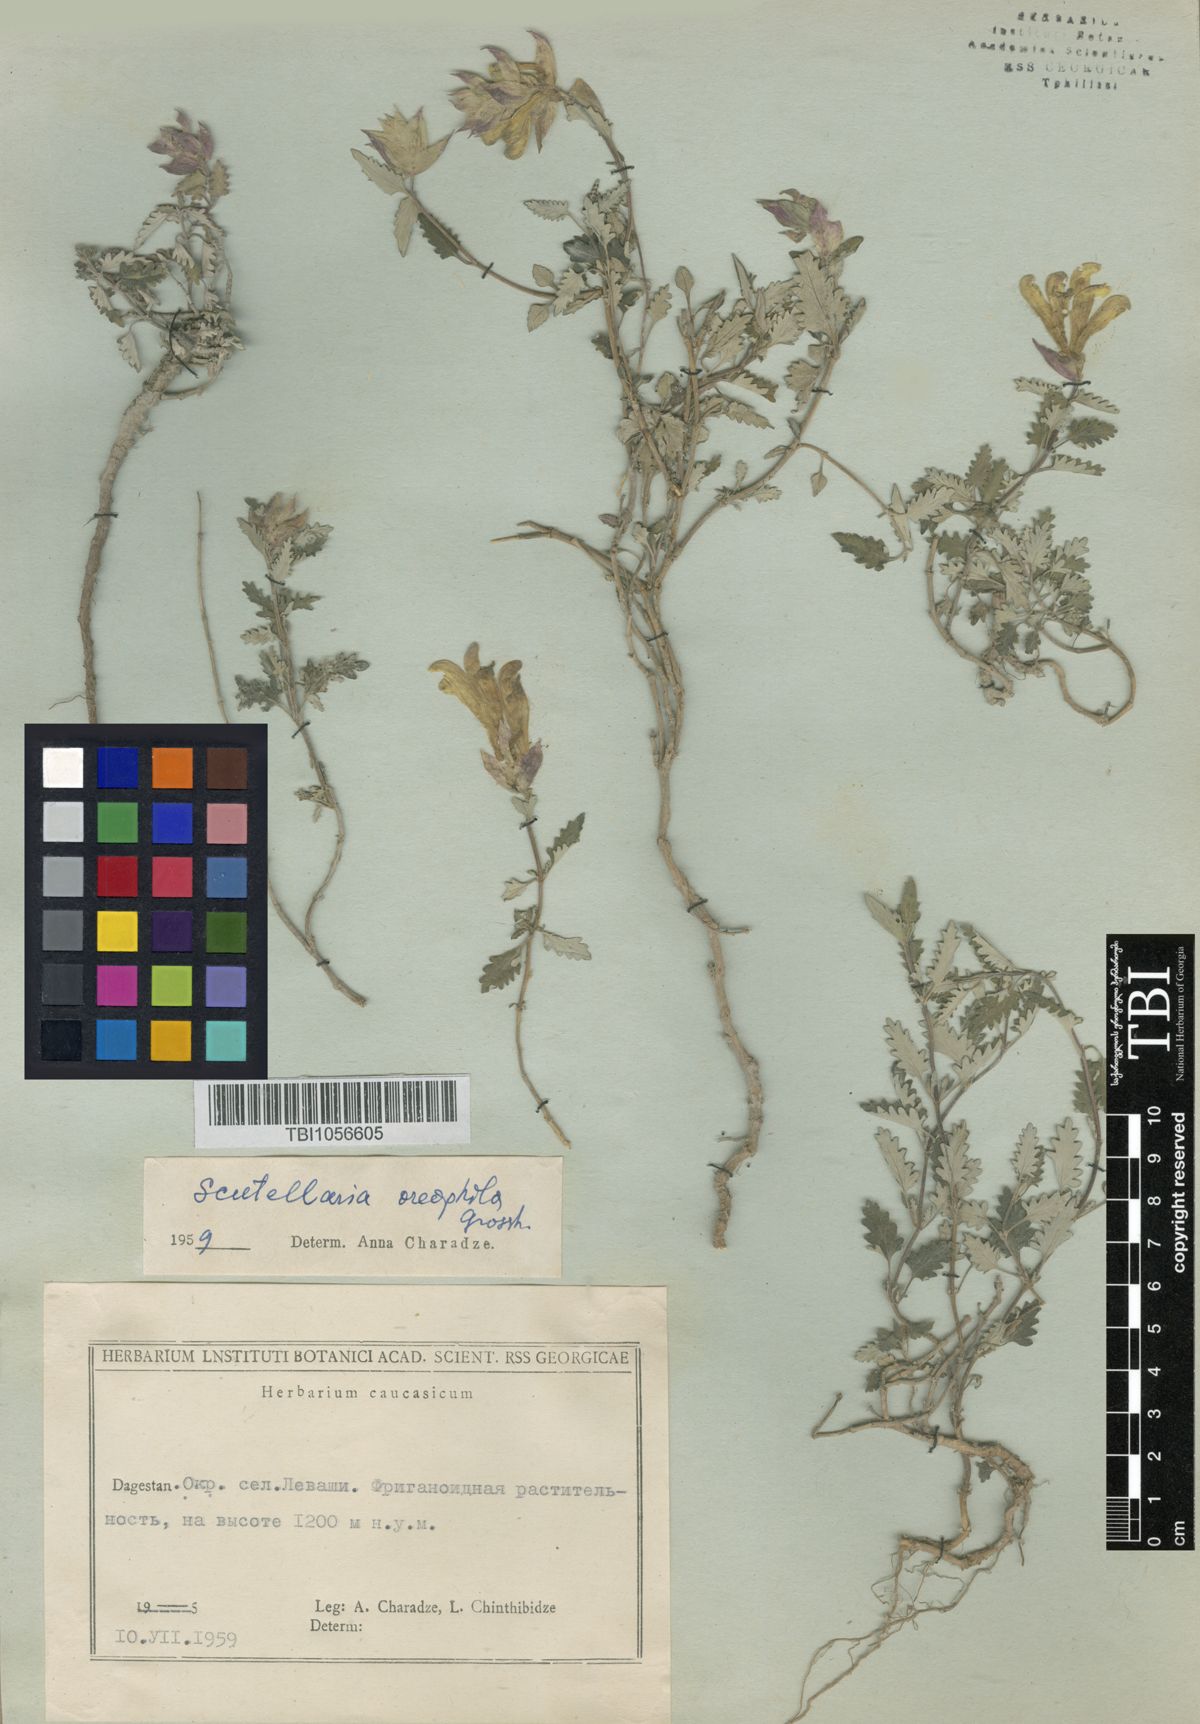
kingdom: Plantae
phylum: Tracheophyta
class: Magnoliopsida
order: Lamiales
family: Lamiaceae
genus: Scutellaria
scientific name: Scutellaria oreophila
